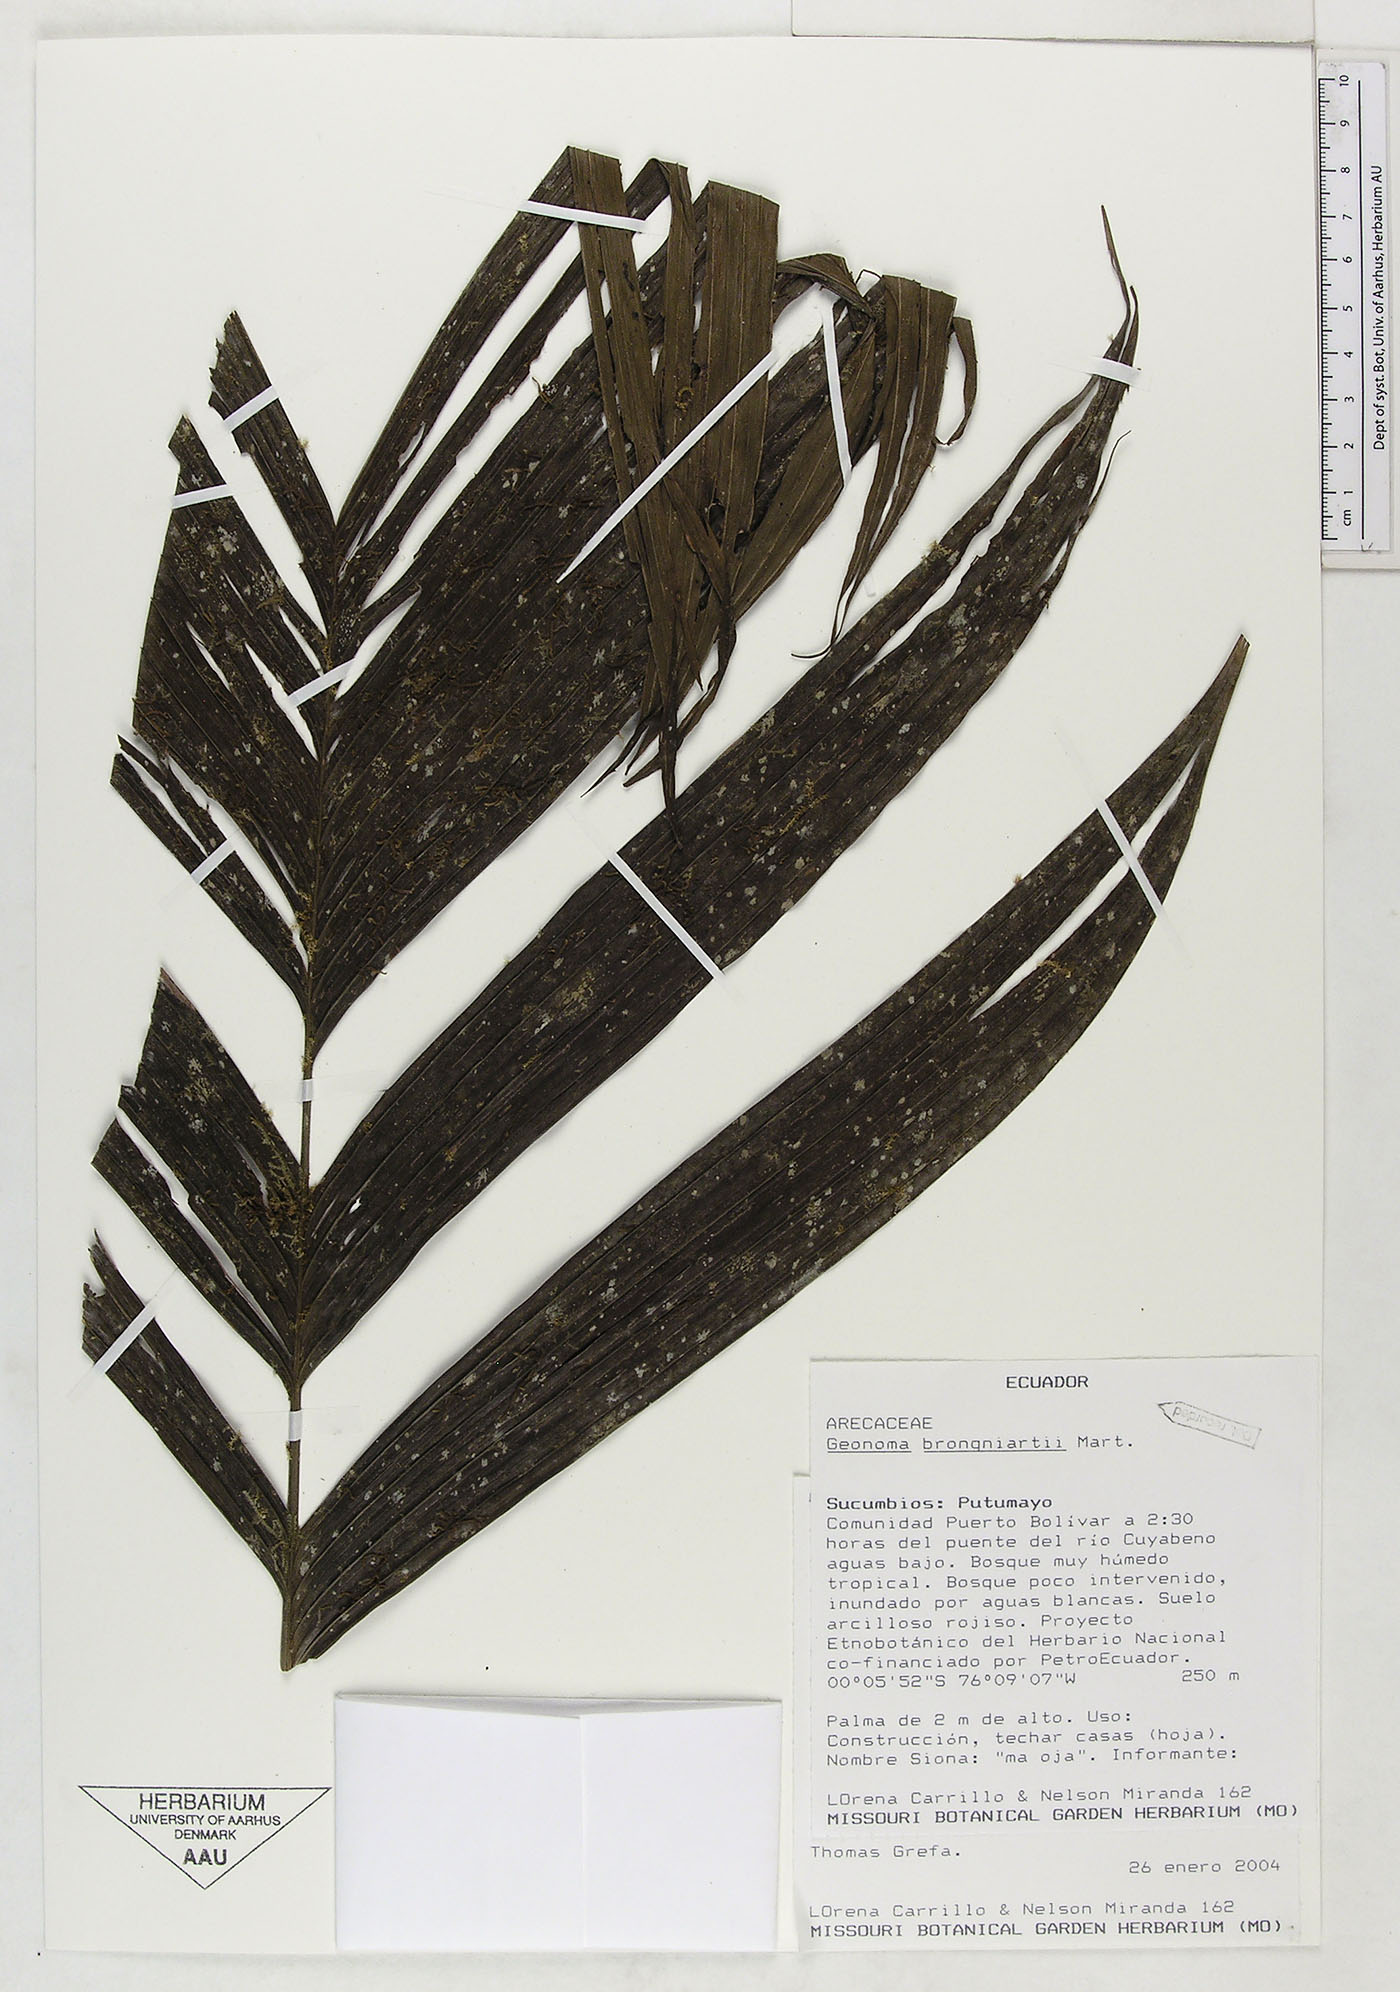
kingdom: Plantae
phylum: Tracheophyta
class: Liliopsida
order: Arecales
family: Arecaceae
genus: Geonoma
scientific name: Geonoma brongniartii
